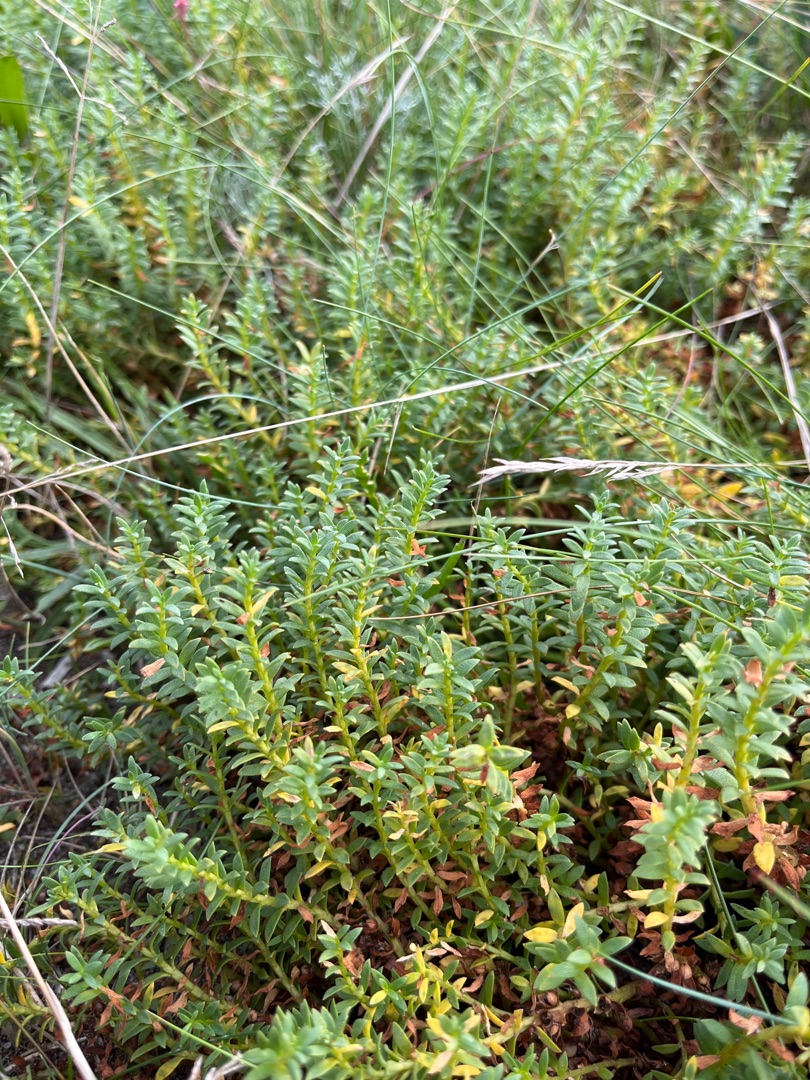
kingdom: Plantae
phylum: Tracheophyta
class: Magnoliopsida
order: Ericales
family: Primulaceae
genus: Lysimachia
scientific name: Lysimachia maritima
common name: Sandkryb
